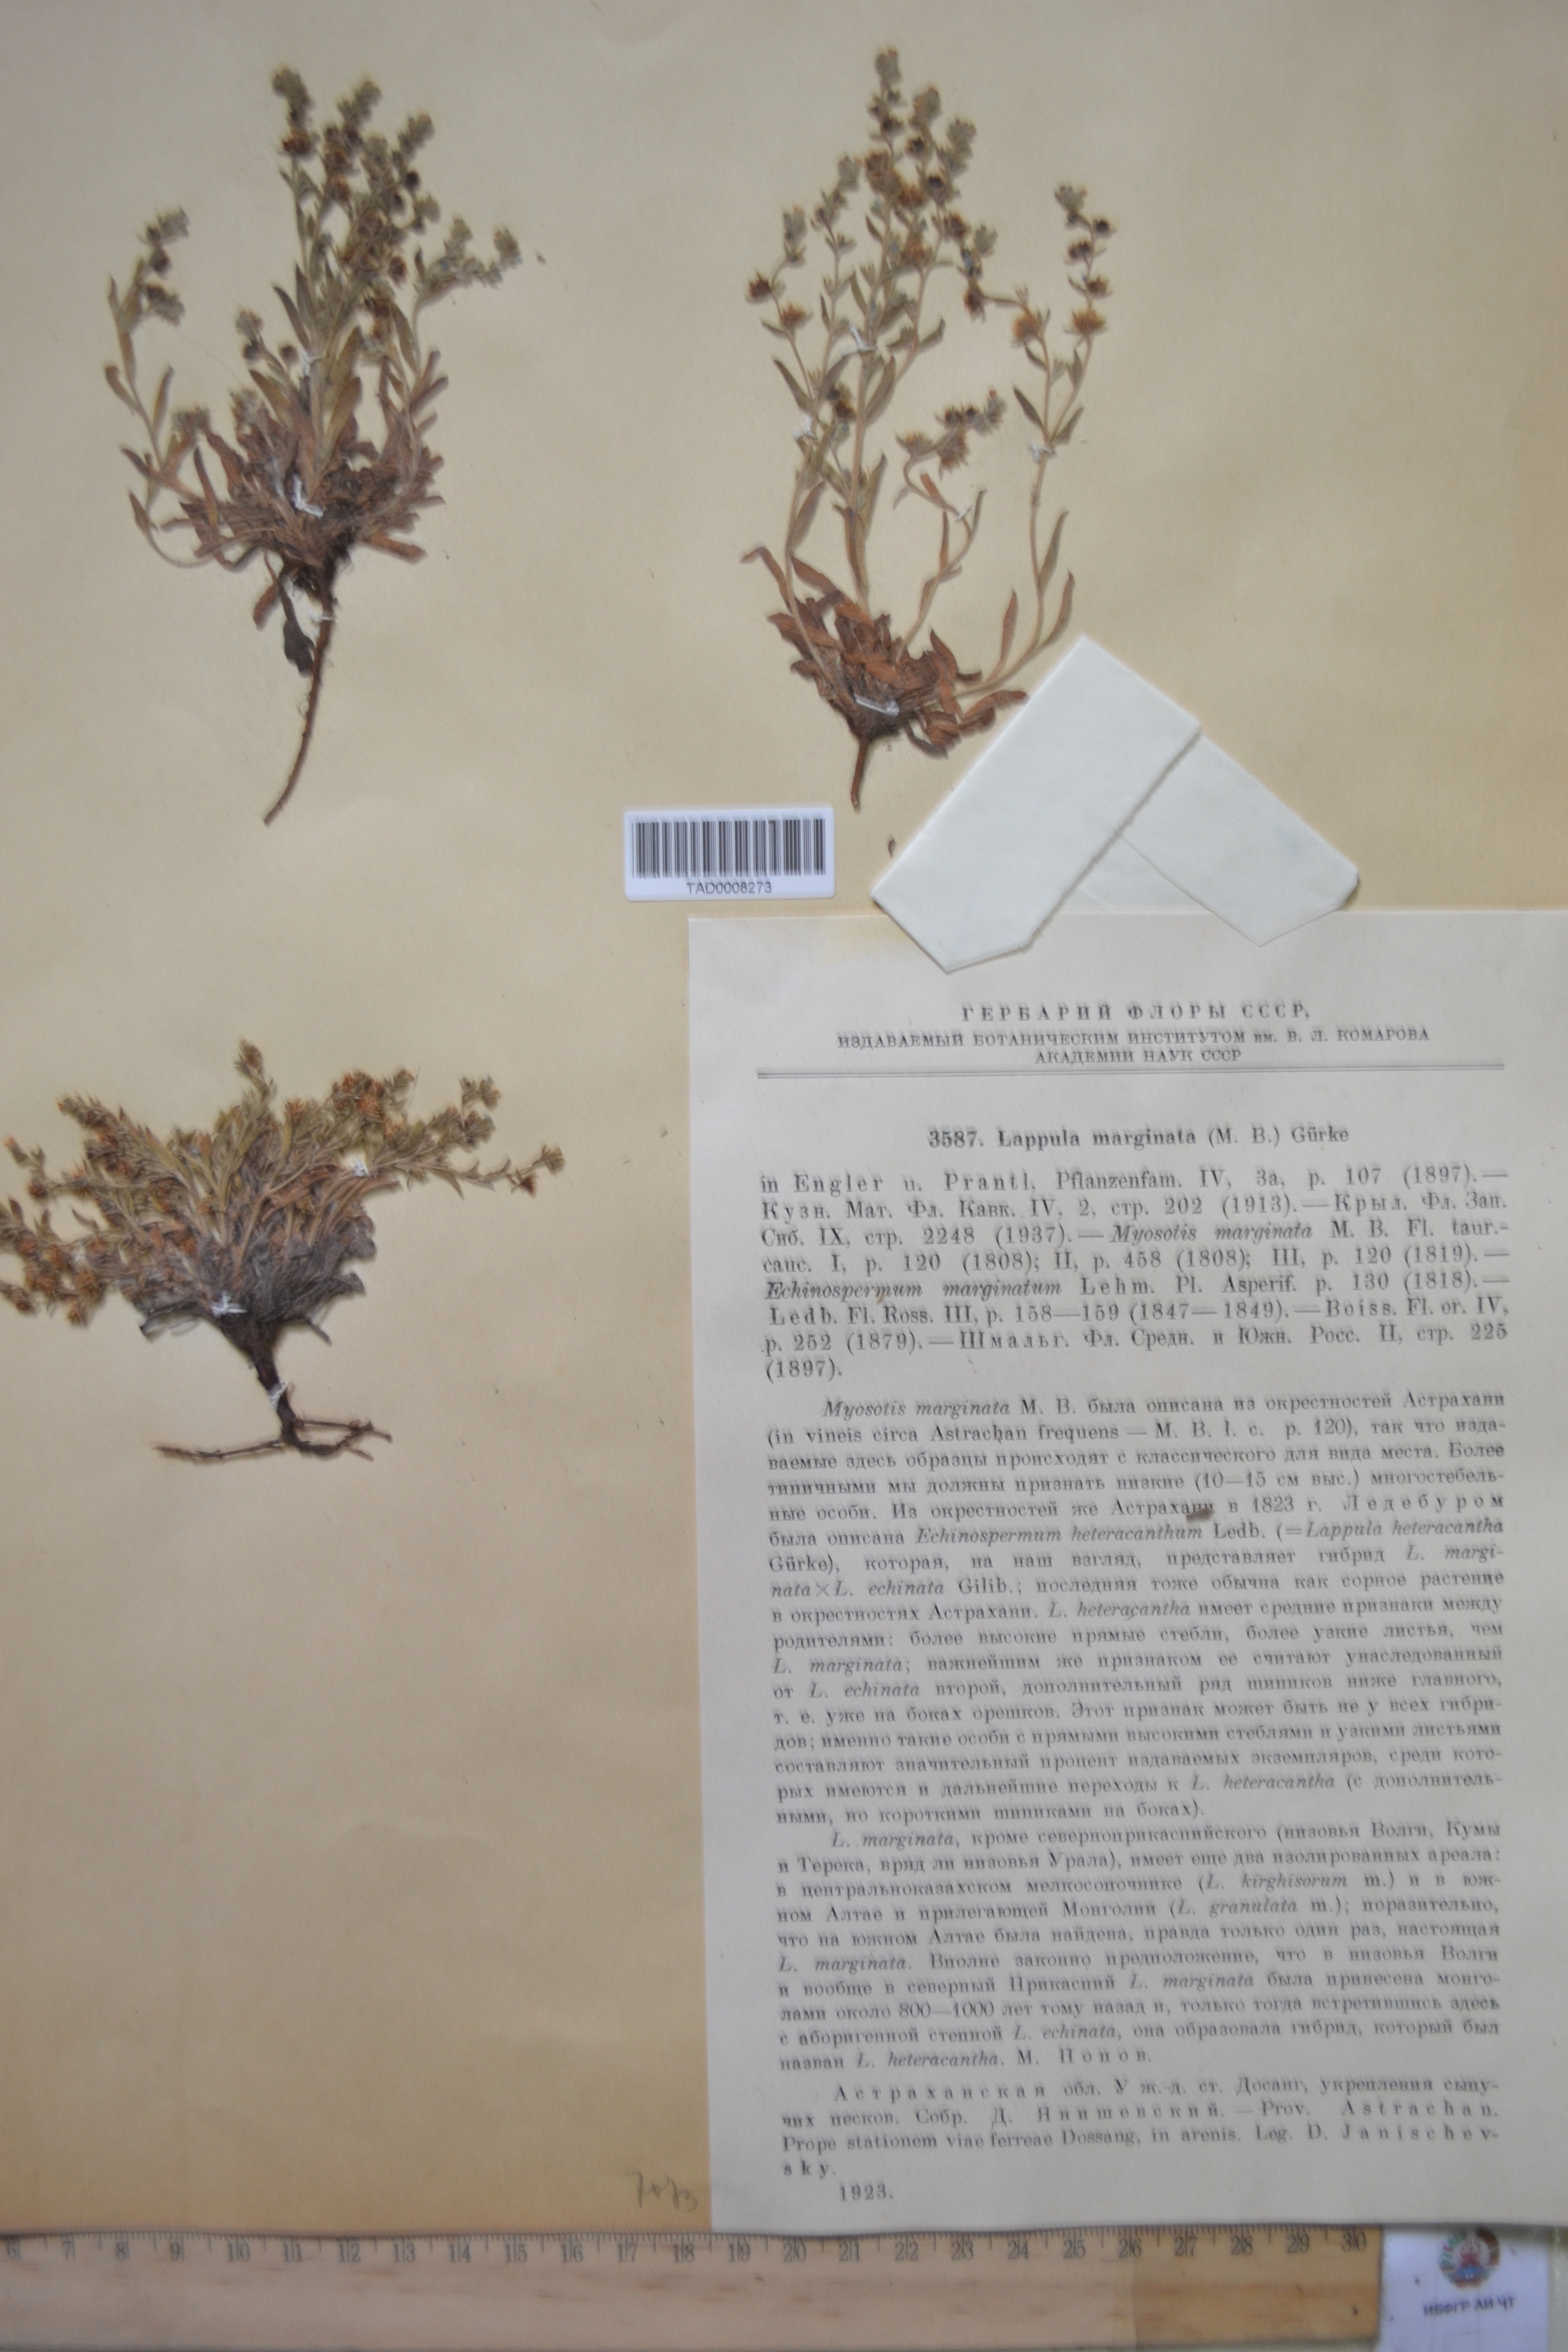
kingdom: Plantae
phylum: Tracheophyta
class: Magnoliopsida
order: Boraginales
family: Boraginaceae
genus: Lappula
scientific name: Lappula marginata
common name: Margined stickseed
